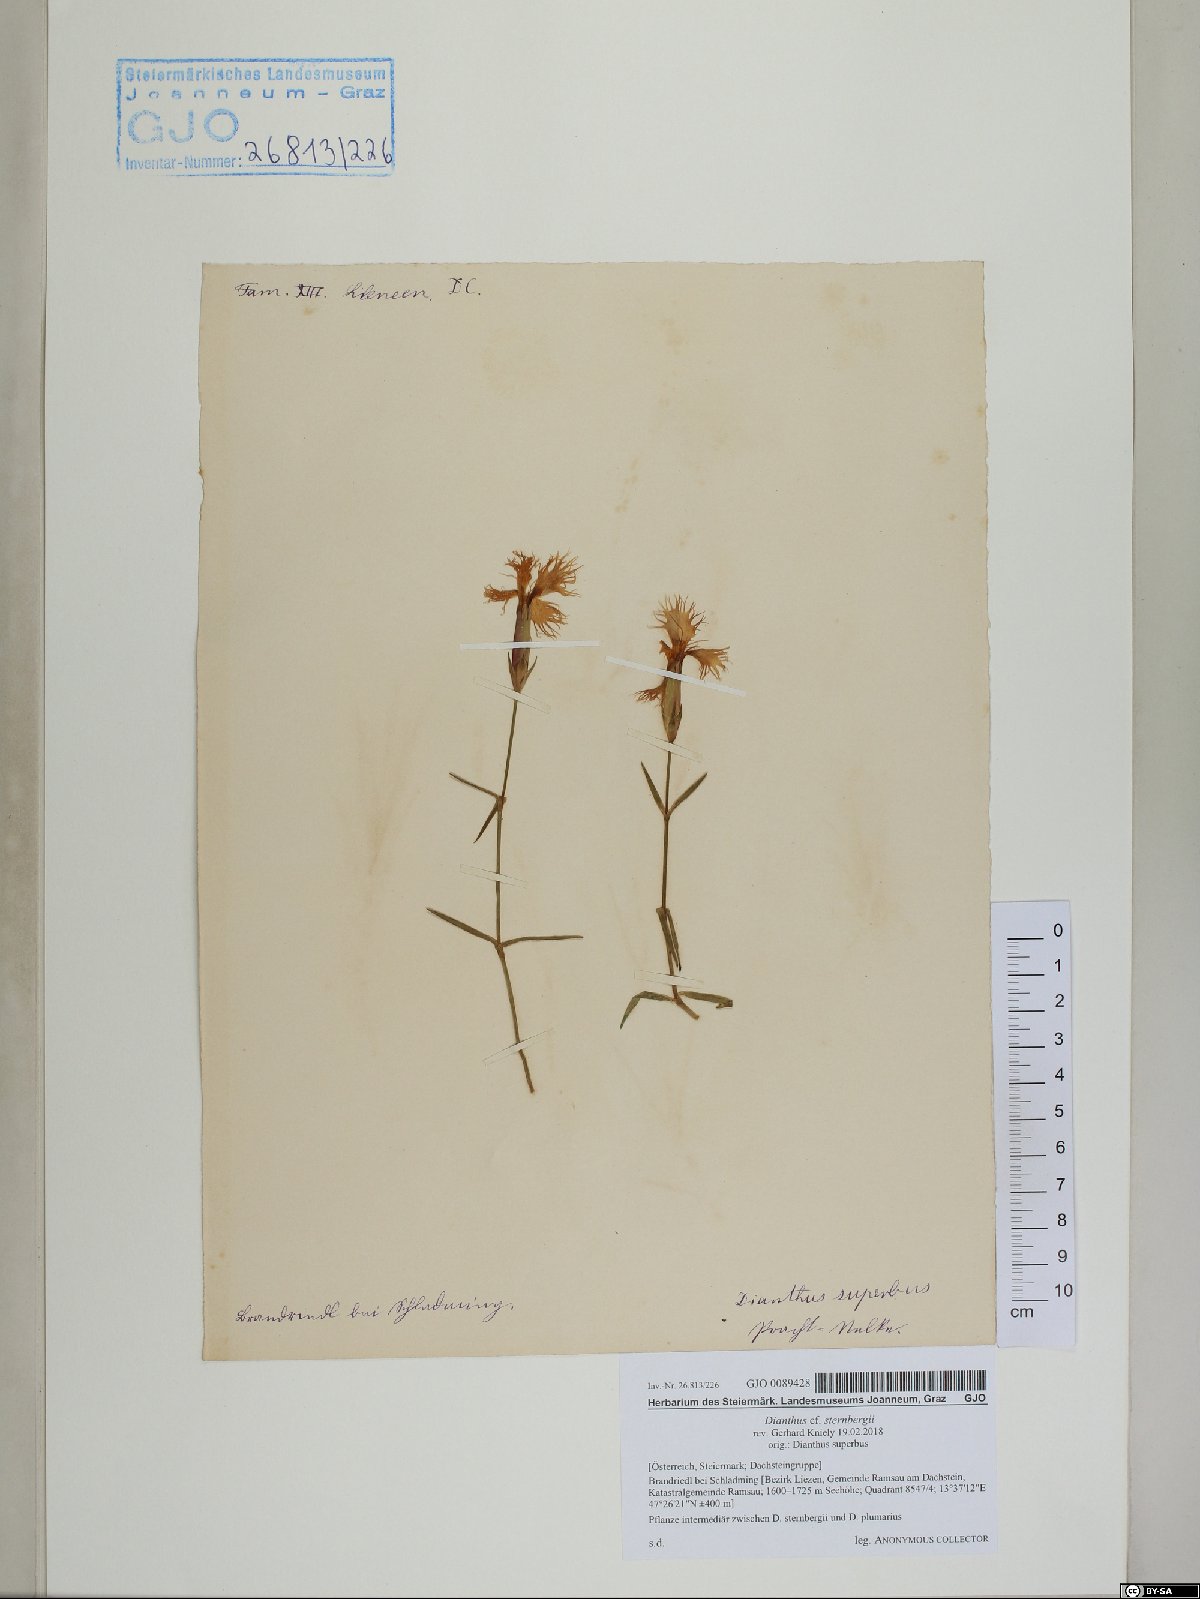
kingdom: Plantae
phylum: Tracheophyta
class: Magnoliopsida
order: Caryophyllales
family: Caryophyllaceae
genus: Dianthus
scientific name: Dianthus sternbergii
